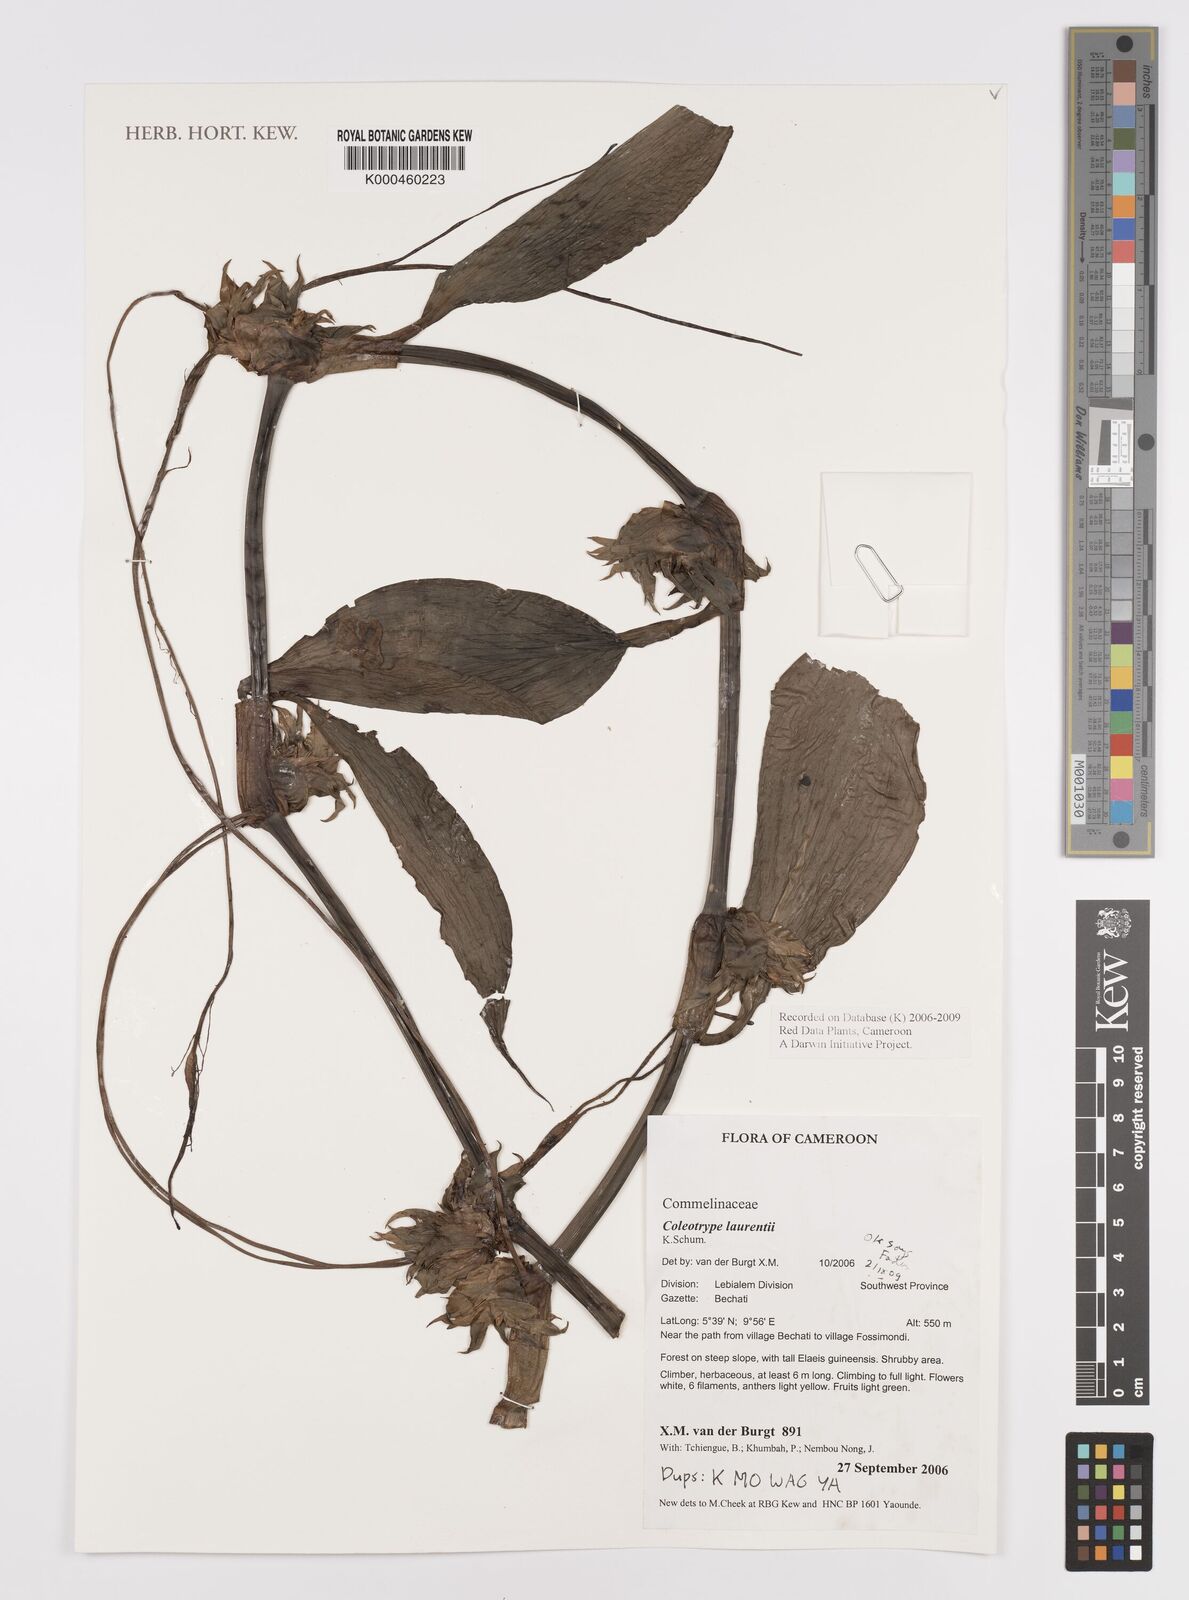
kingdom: Plantae
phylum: Tracheophyta
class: Liliopsida
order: Commelinales
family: Commelinaceae
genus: Coleotrype
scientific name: Coleotrype laurentii
